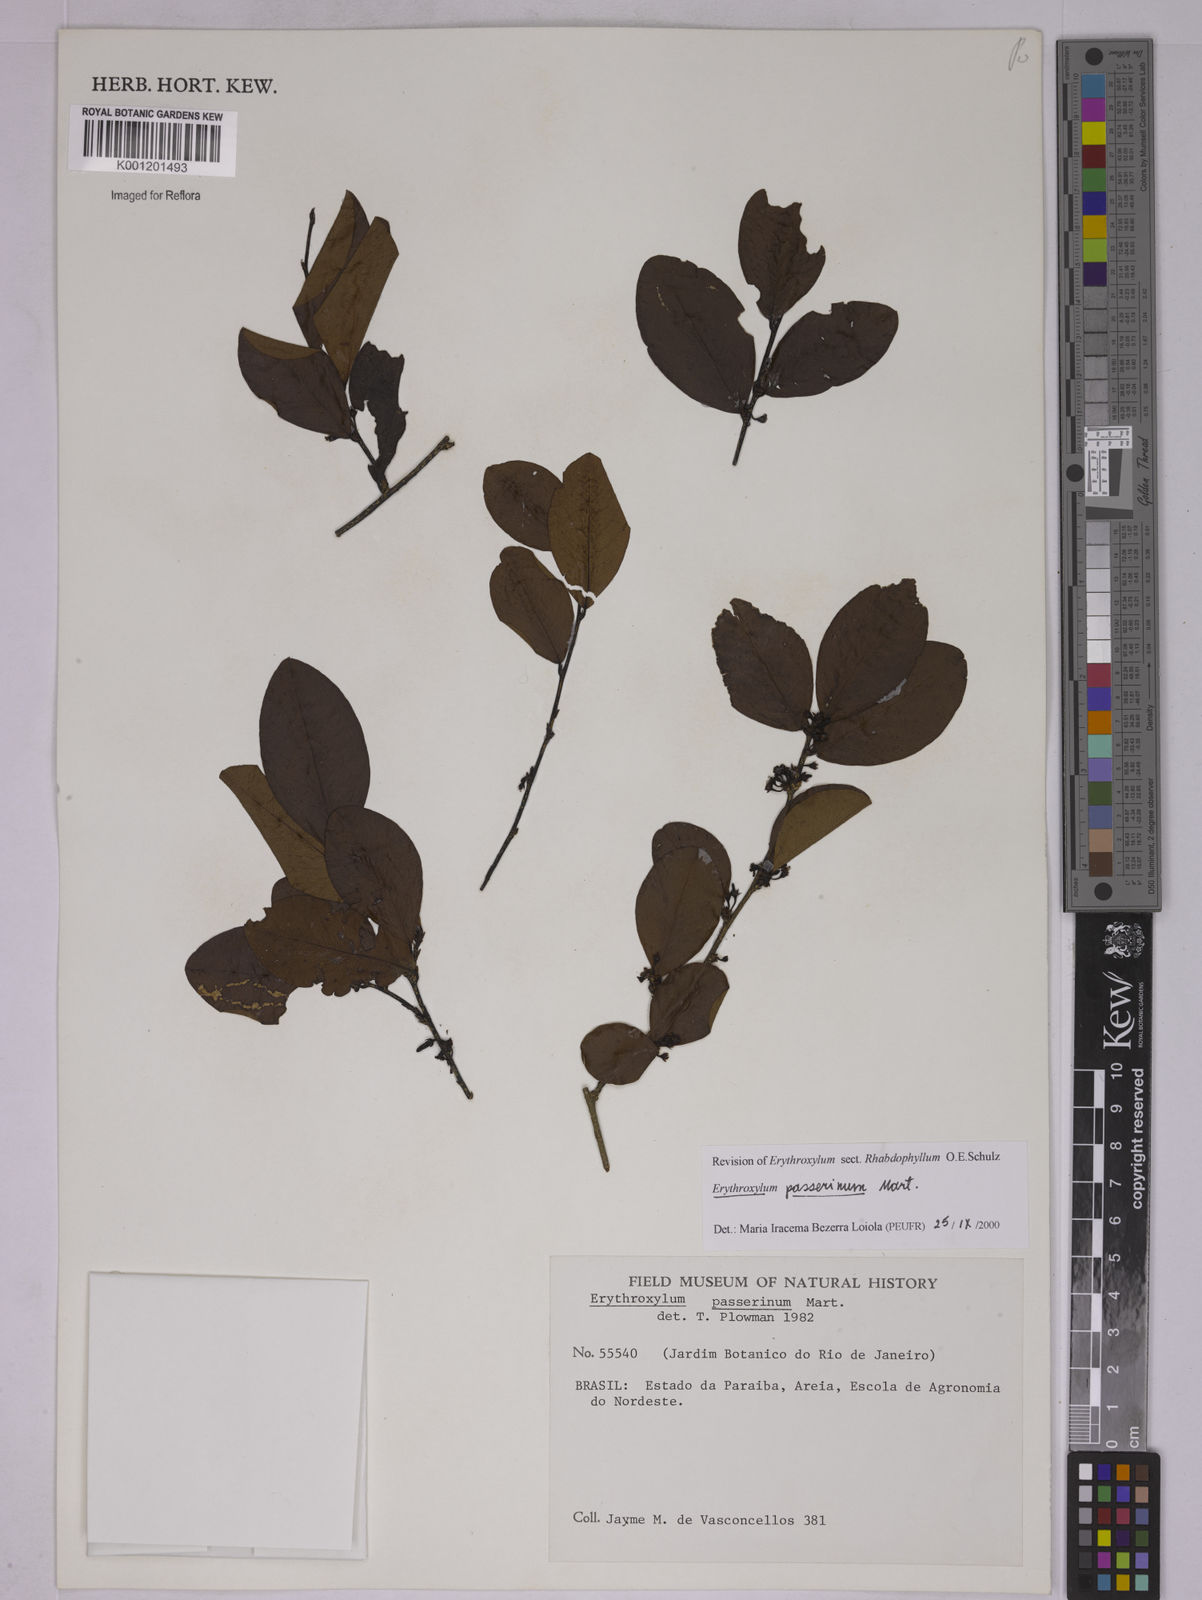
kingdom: Plantae
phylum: Tracheophyta
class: Magnoliopsida
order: Malpighiales
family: Erythroxylaceae
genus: Erythroxylum
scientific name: Erythroxylum passerinum
